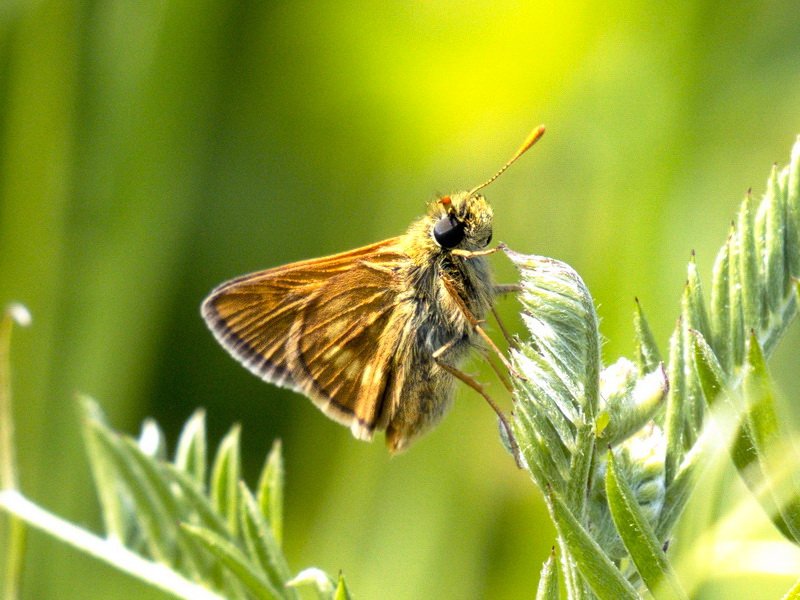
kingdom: Animalia
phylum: Arthropoda
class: Insecta
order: Lepidoptera
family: Hesperiidae
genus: Polites
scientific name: Polites
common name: Long Dash Skipper
